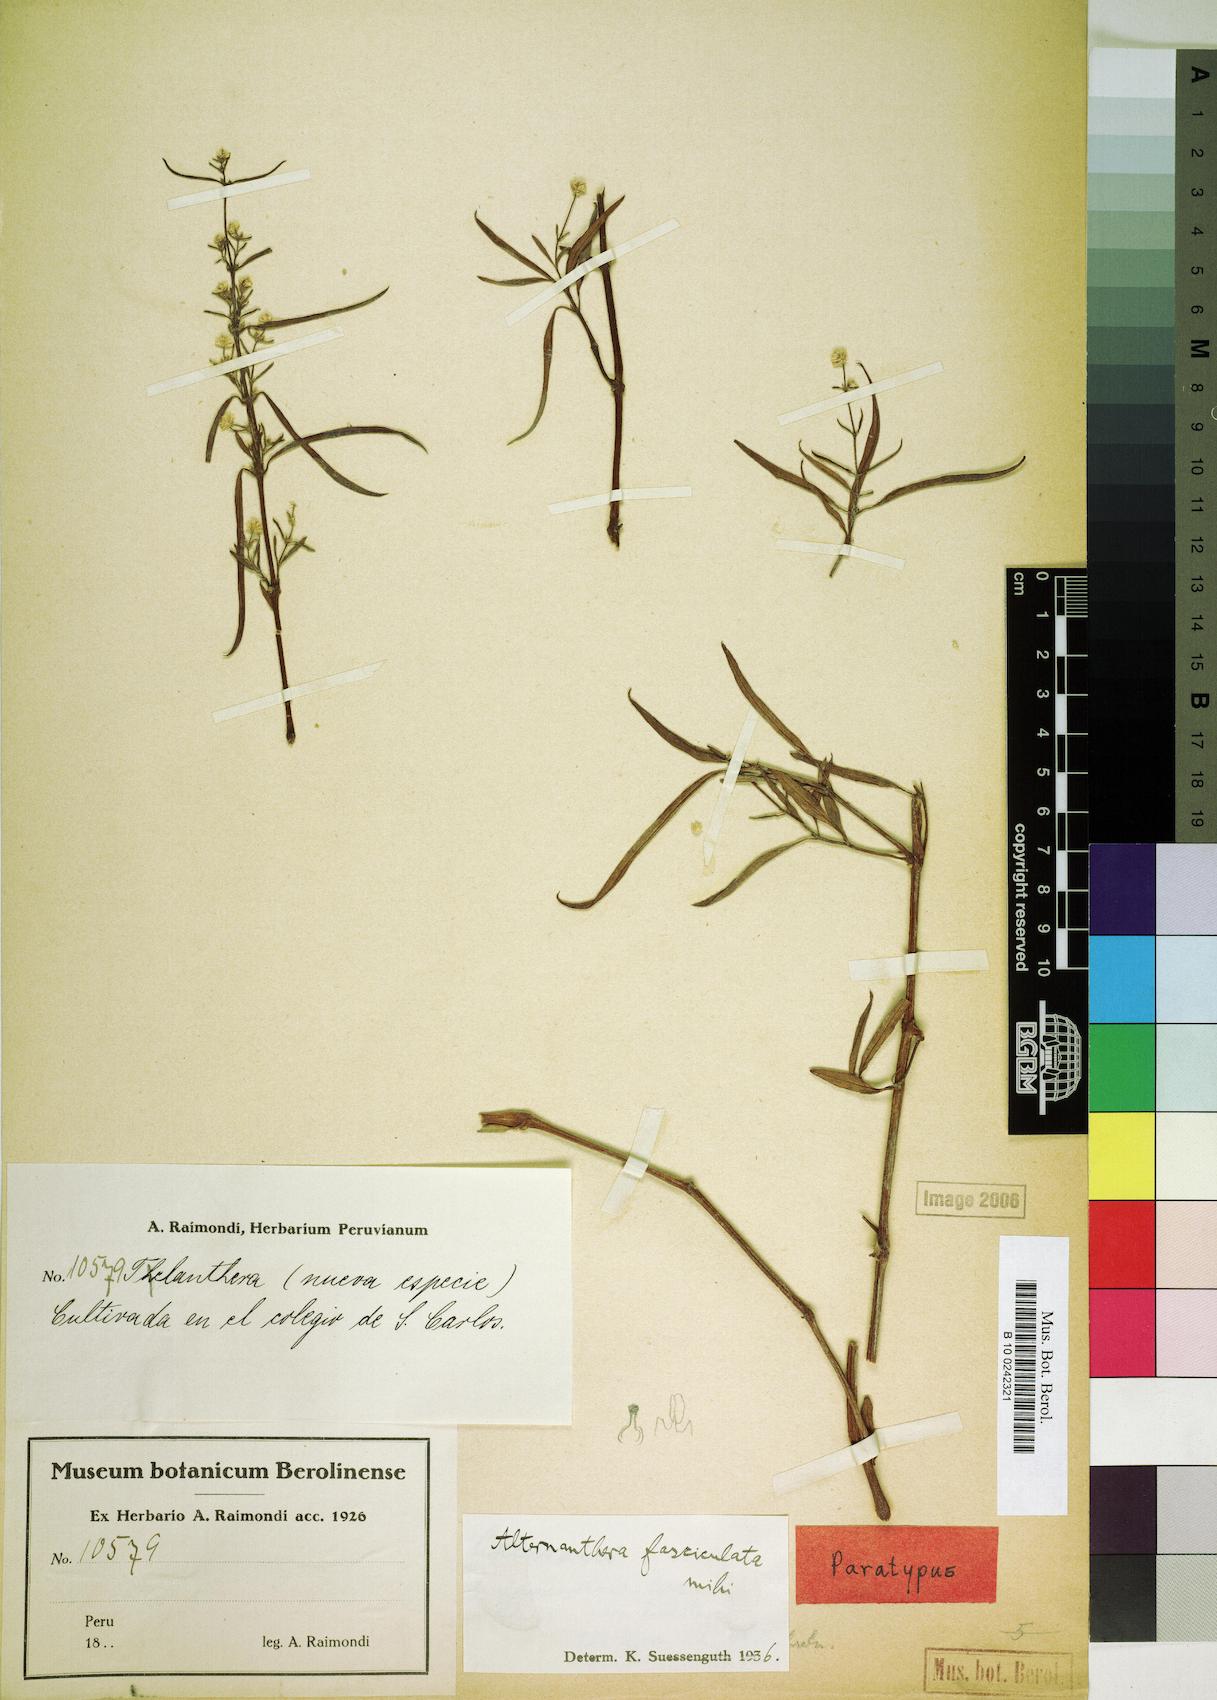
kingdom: Plantae
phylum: Tracheophyta
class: Magnoliopsida
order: Caryophyllales
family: Amaranthaceae
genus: Alternanthera
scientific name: Alternanthera fasciculata
